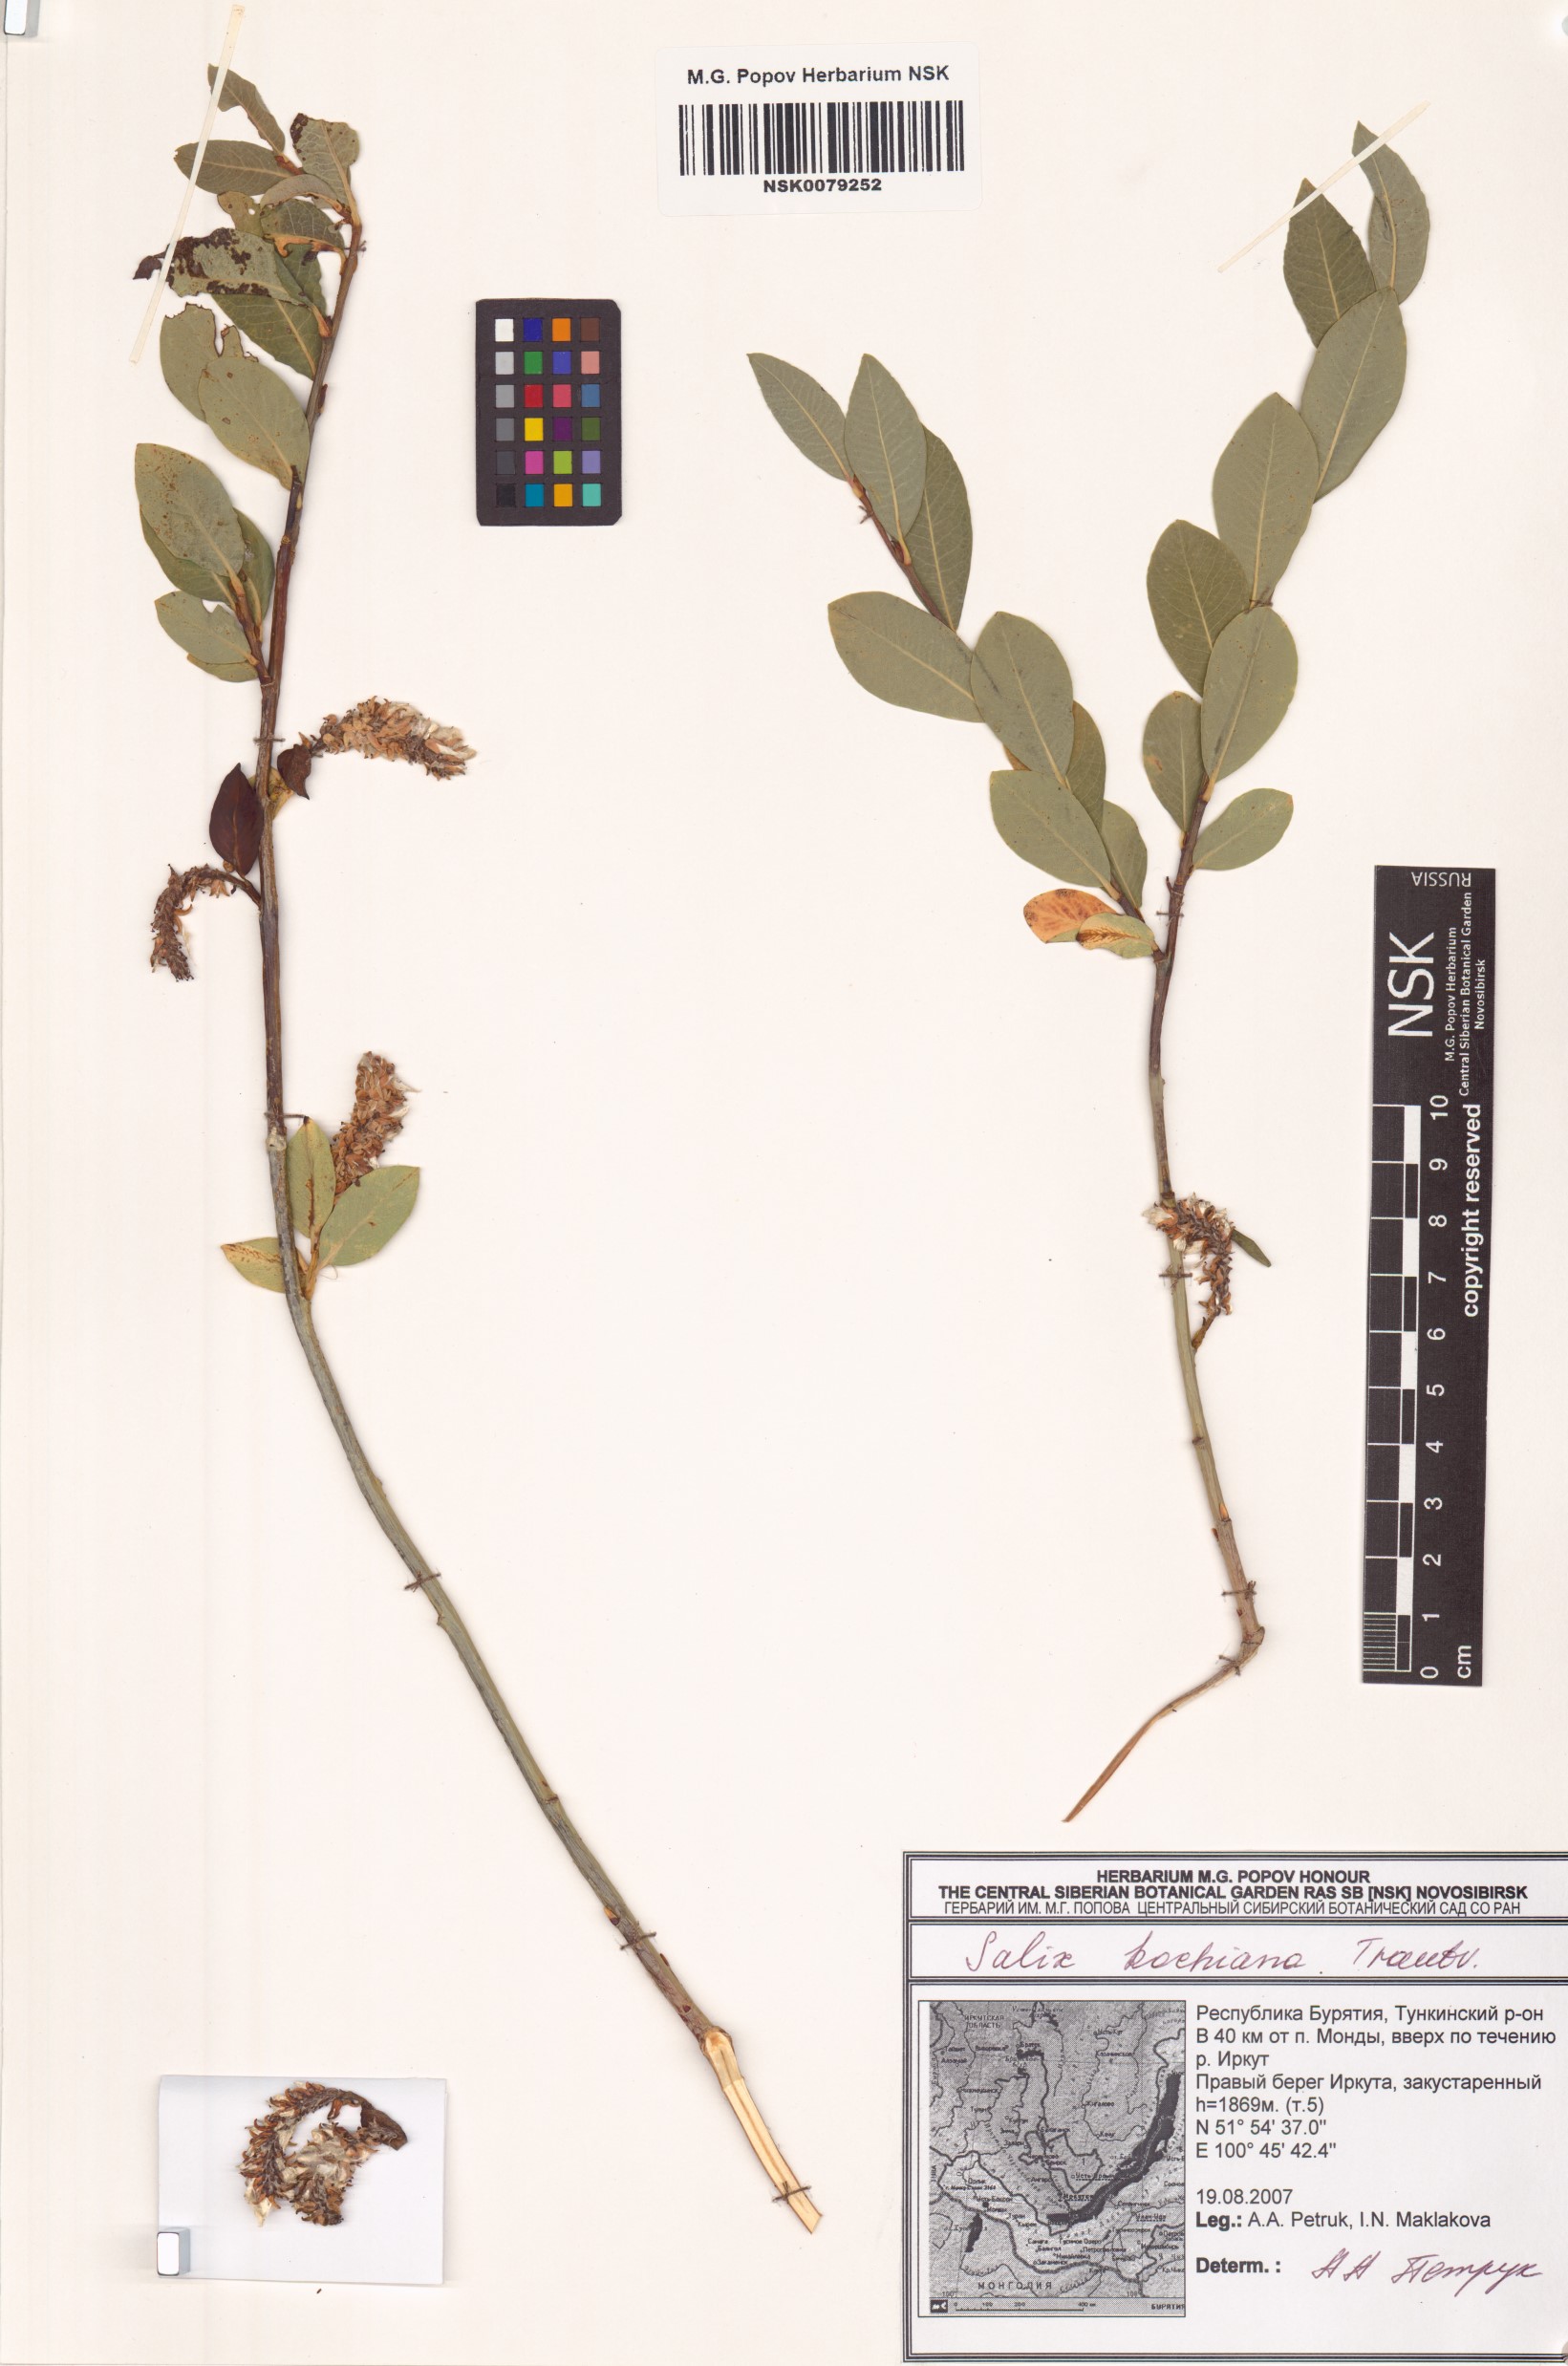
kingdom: Plantae
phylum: Tracheophyta
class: Magnoliopsida
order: Malpighiales
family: Salicaceae
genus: Salix
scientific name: Salix kochiana
